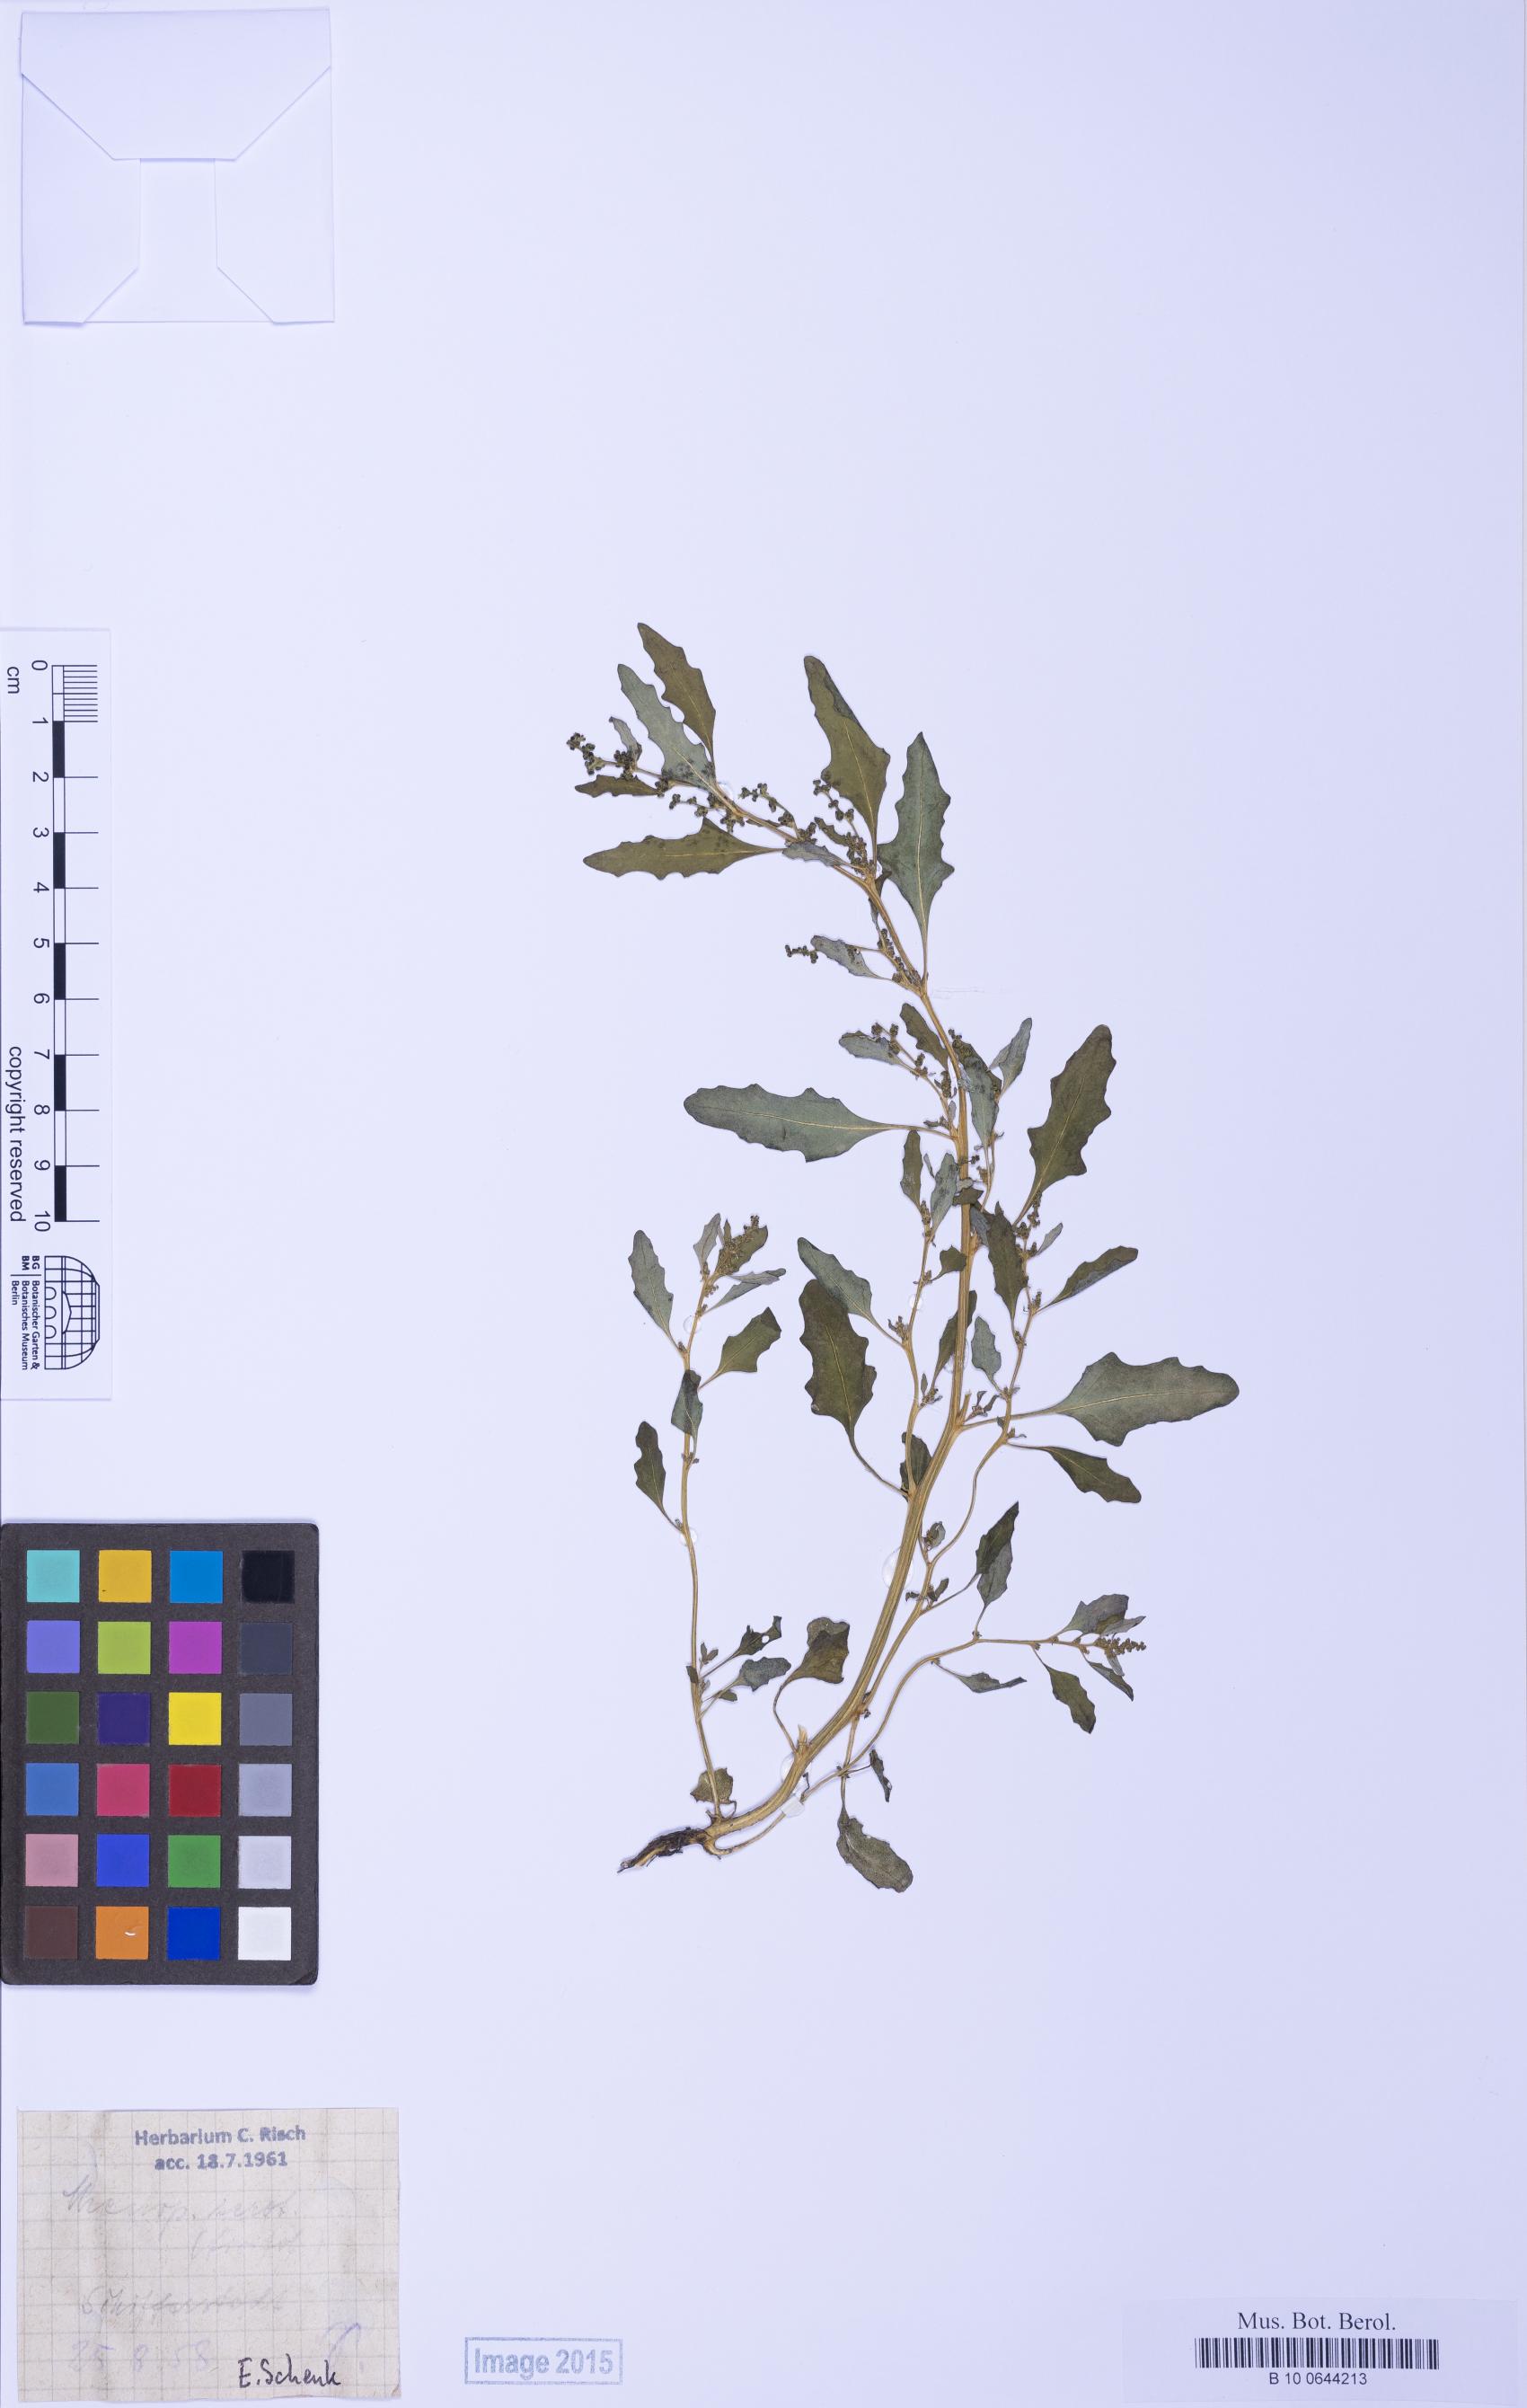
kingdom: Plantae
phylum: Tracheophyta
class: Magnoliopsida
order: Caryophyllales
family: Amaranthaceae
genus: Oxybasis
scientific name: Oxybasis glauca
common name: Glaucous goosefoot
